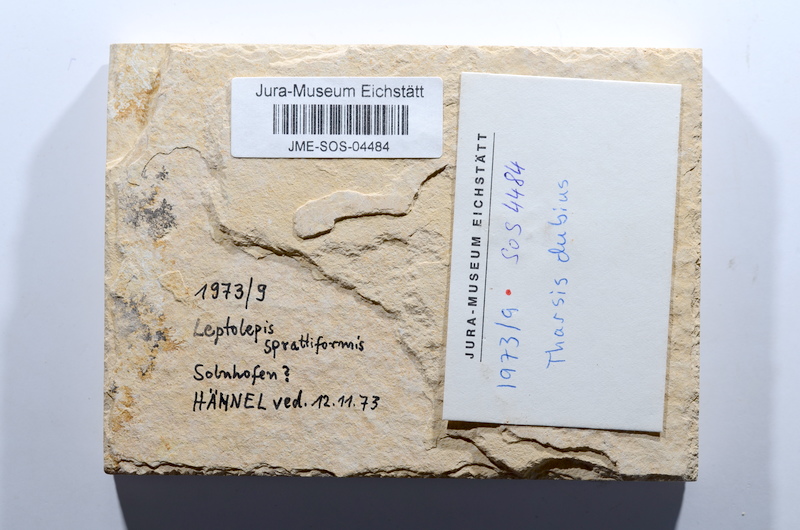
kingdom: Animalia
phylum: Chordata
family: Ascalaboidae
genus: Tharsis
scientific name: Tharsis dubius
